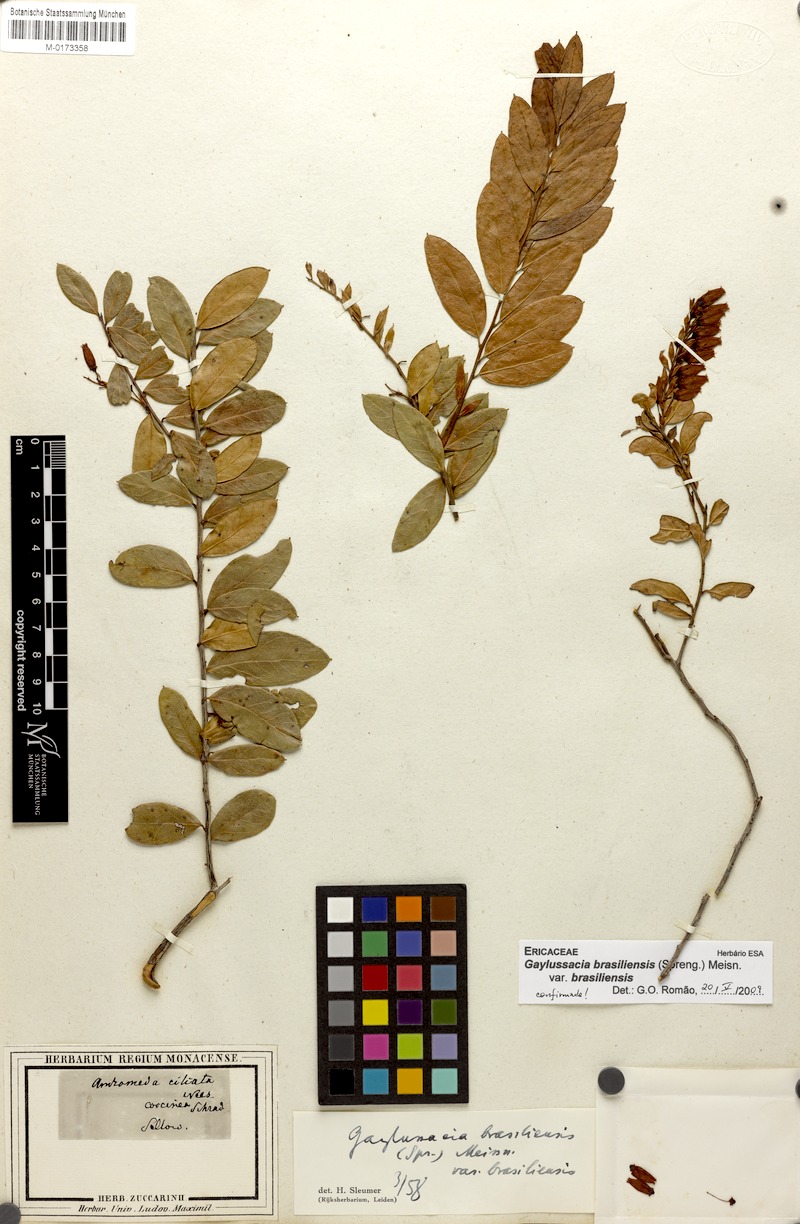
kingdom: Plantae
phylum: Tracheophyta
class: Magnoliopsida
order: Ericales
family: Ericaceae
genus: Gaylussacia
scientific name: Gaylussacia brasiliensis
